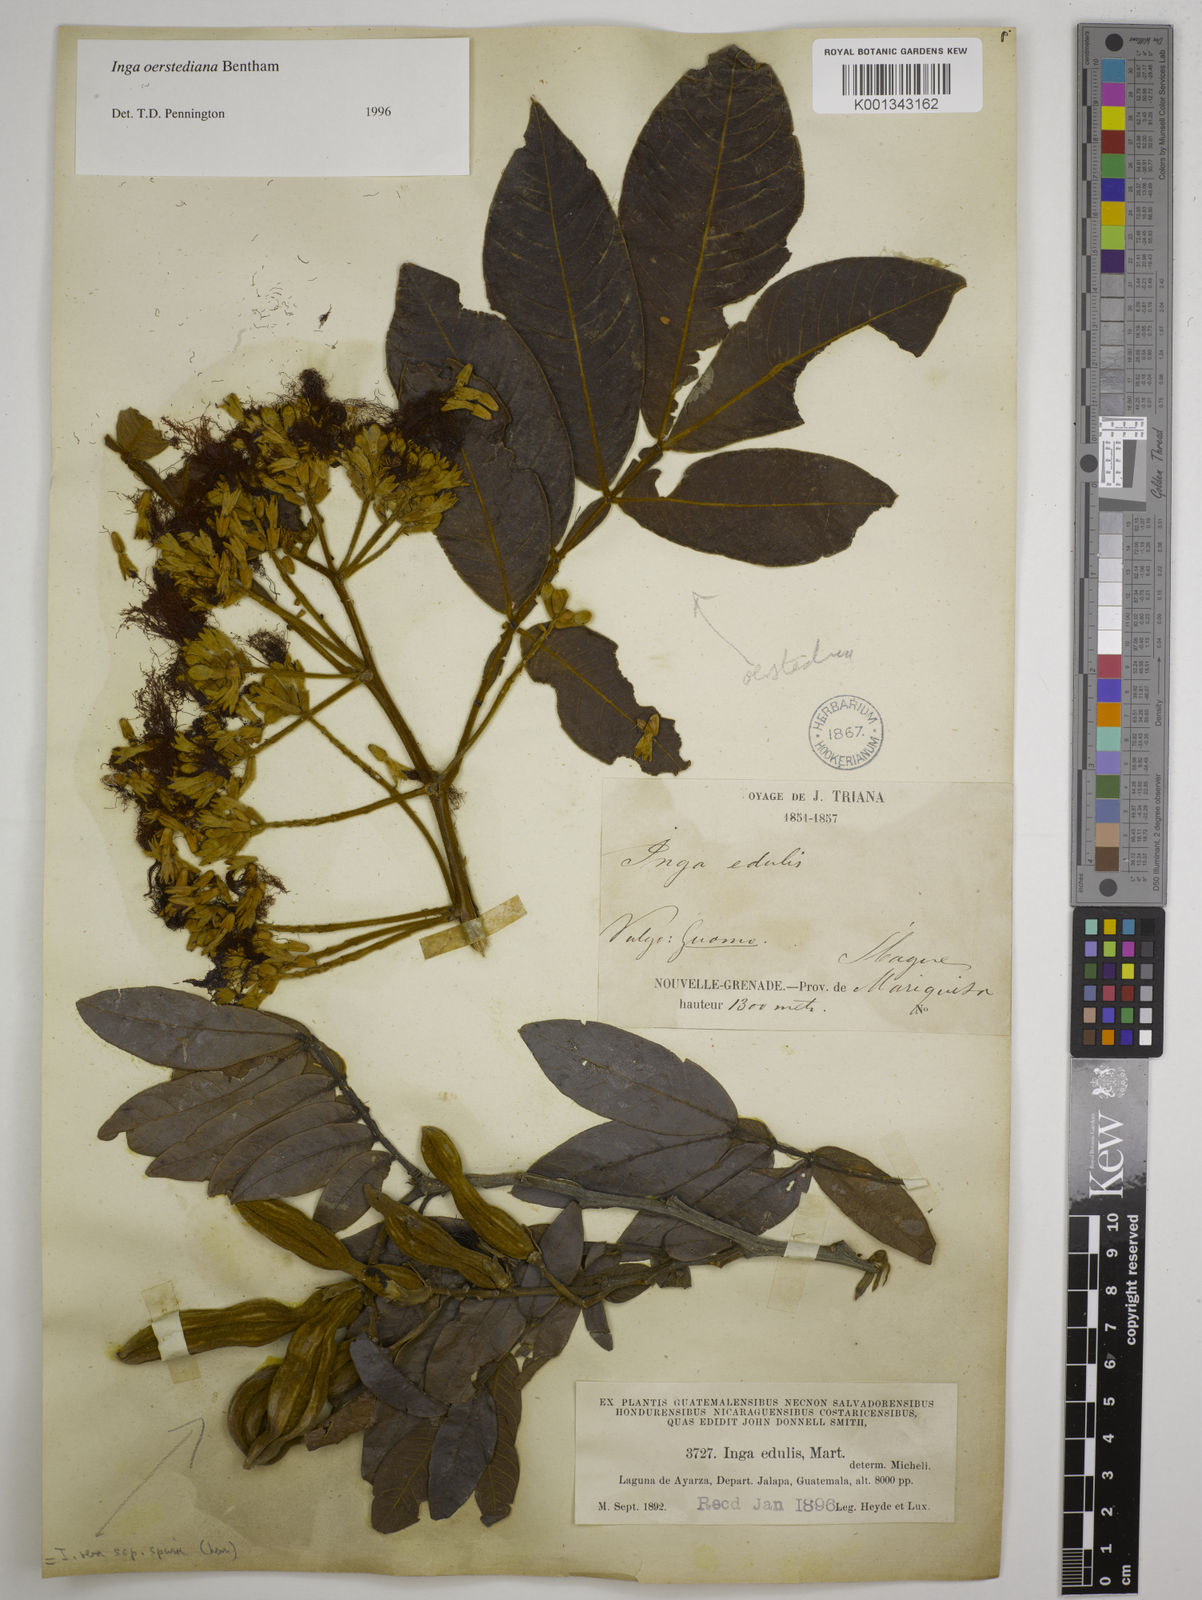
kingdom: Plantae
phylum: Tracheophyta
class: Magnoliopsida
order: Fabales
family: Fabaceae
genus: Inga
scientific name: Inga oerstediana
